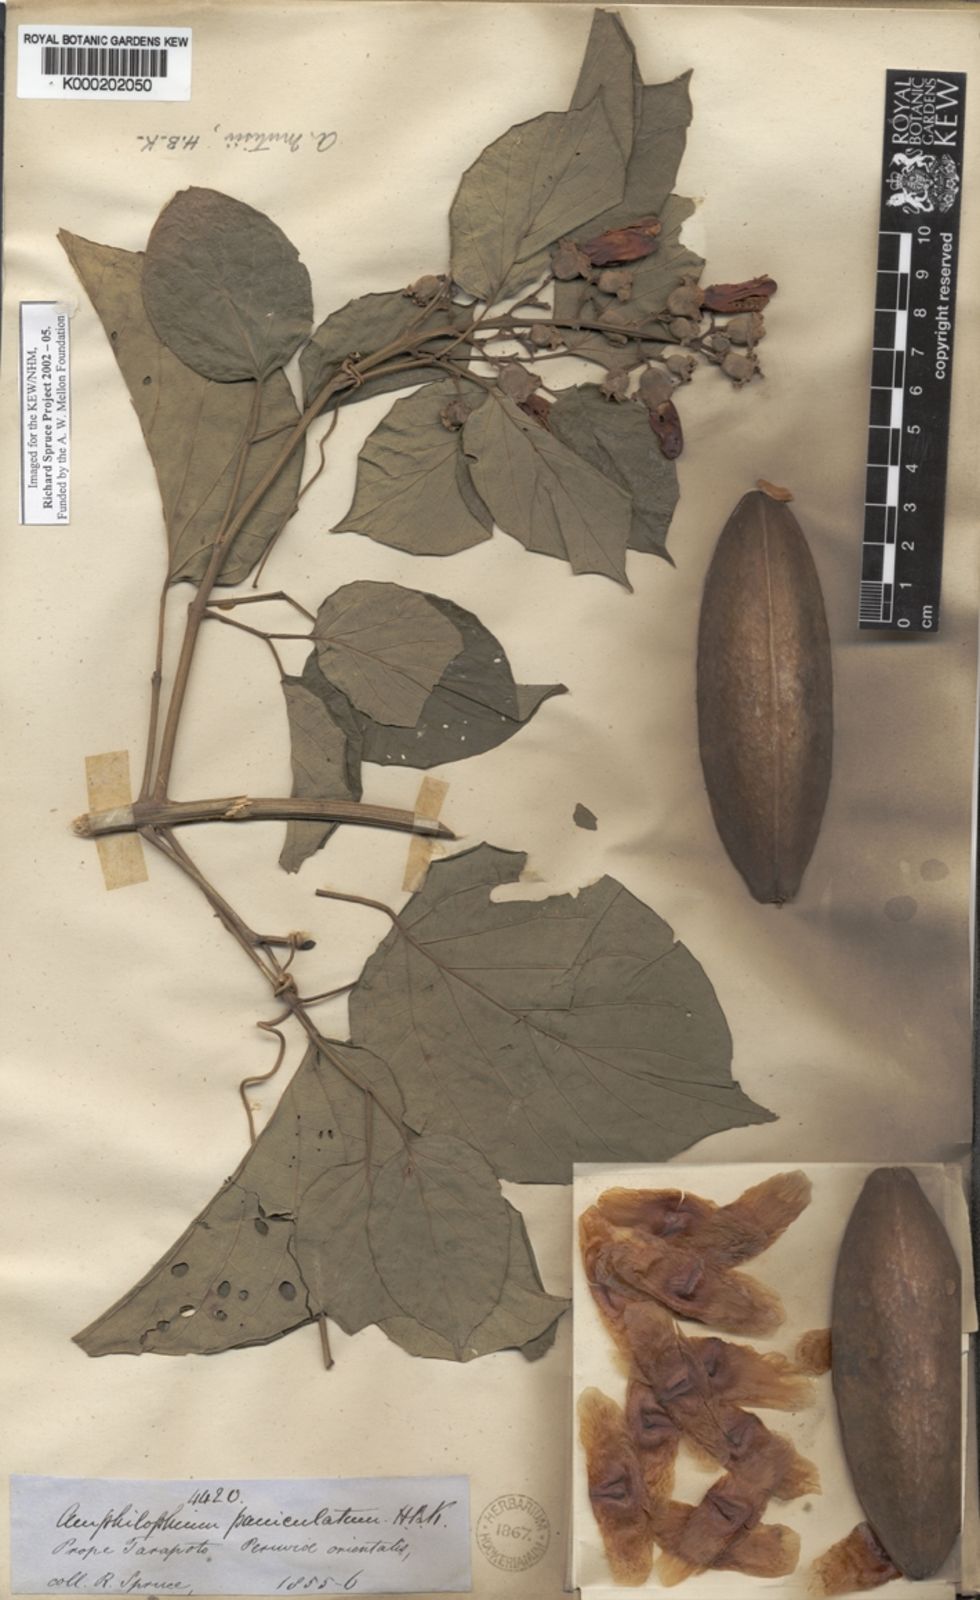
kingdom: Plantae
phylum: Tracheophyta
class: Magnoliopsida
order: Lamiales
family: Bignoniaceae
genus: Amphilophium
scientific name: Amphilophium paniculatum
